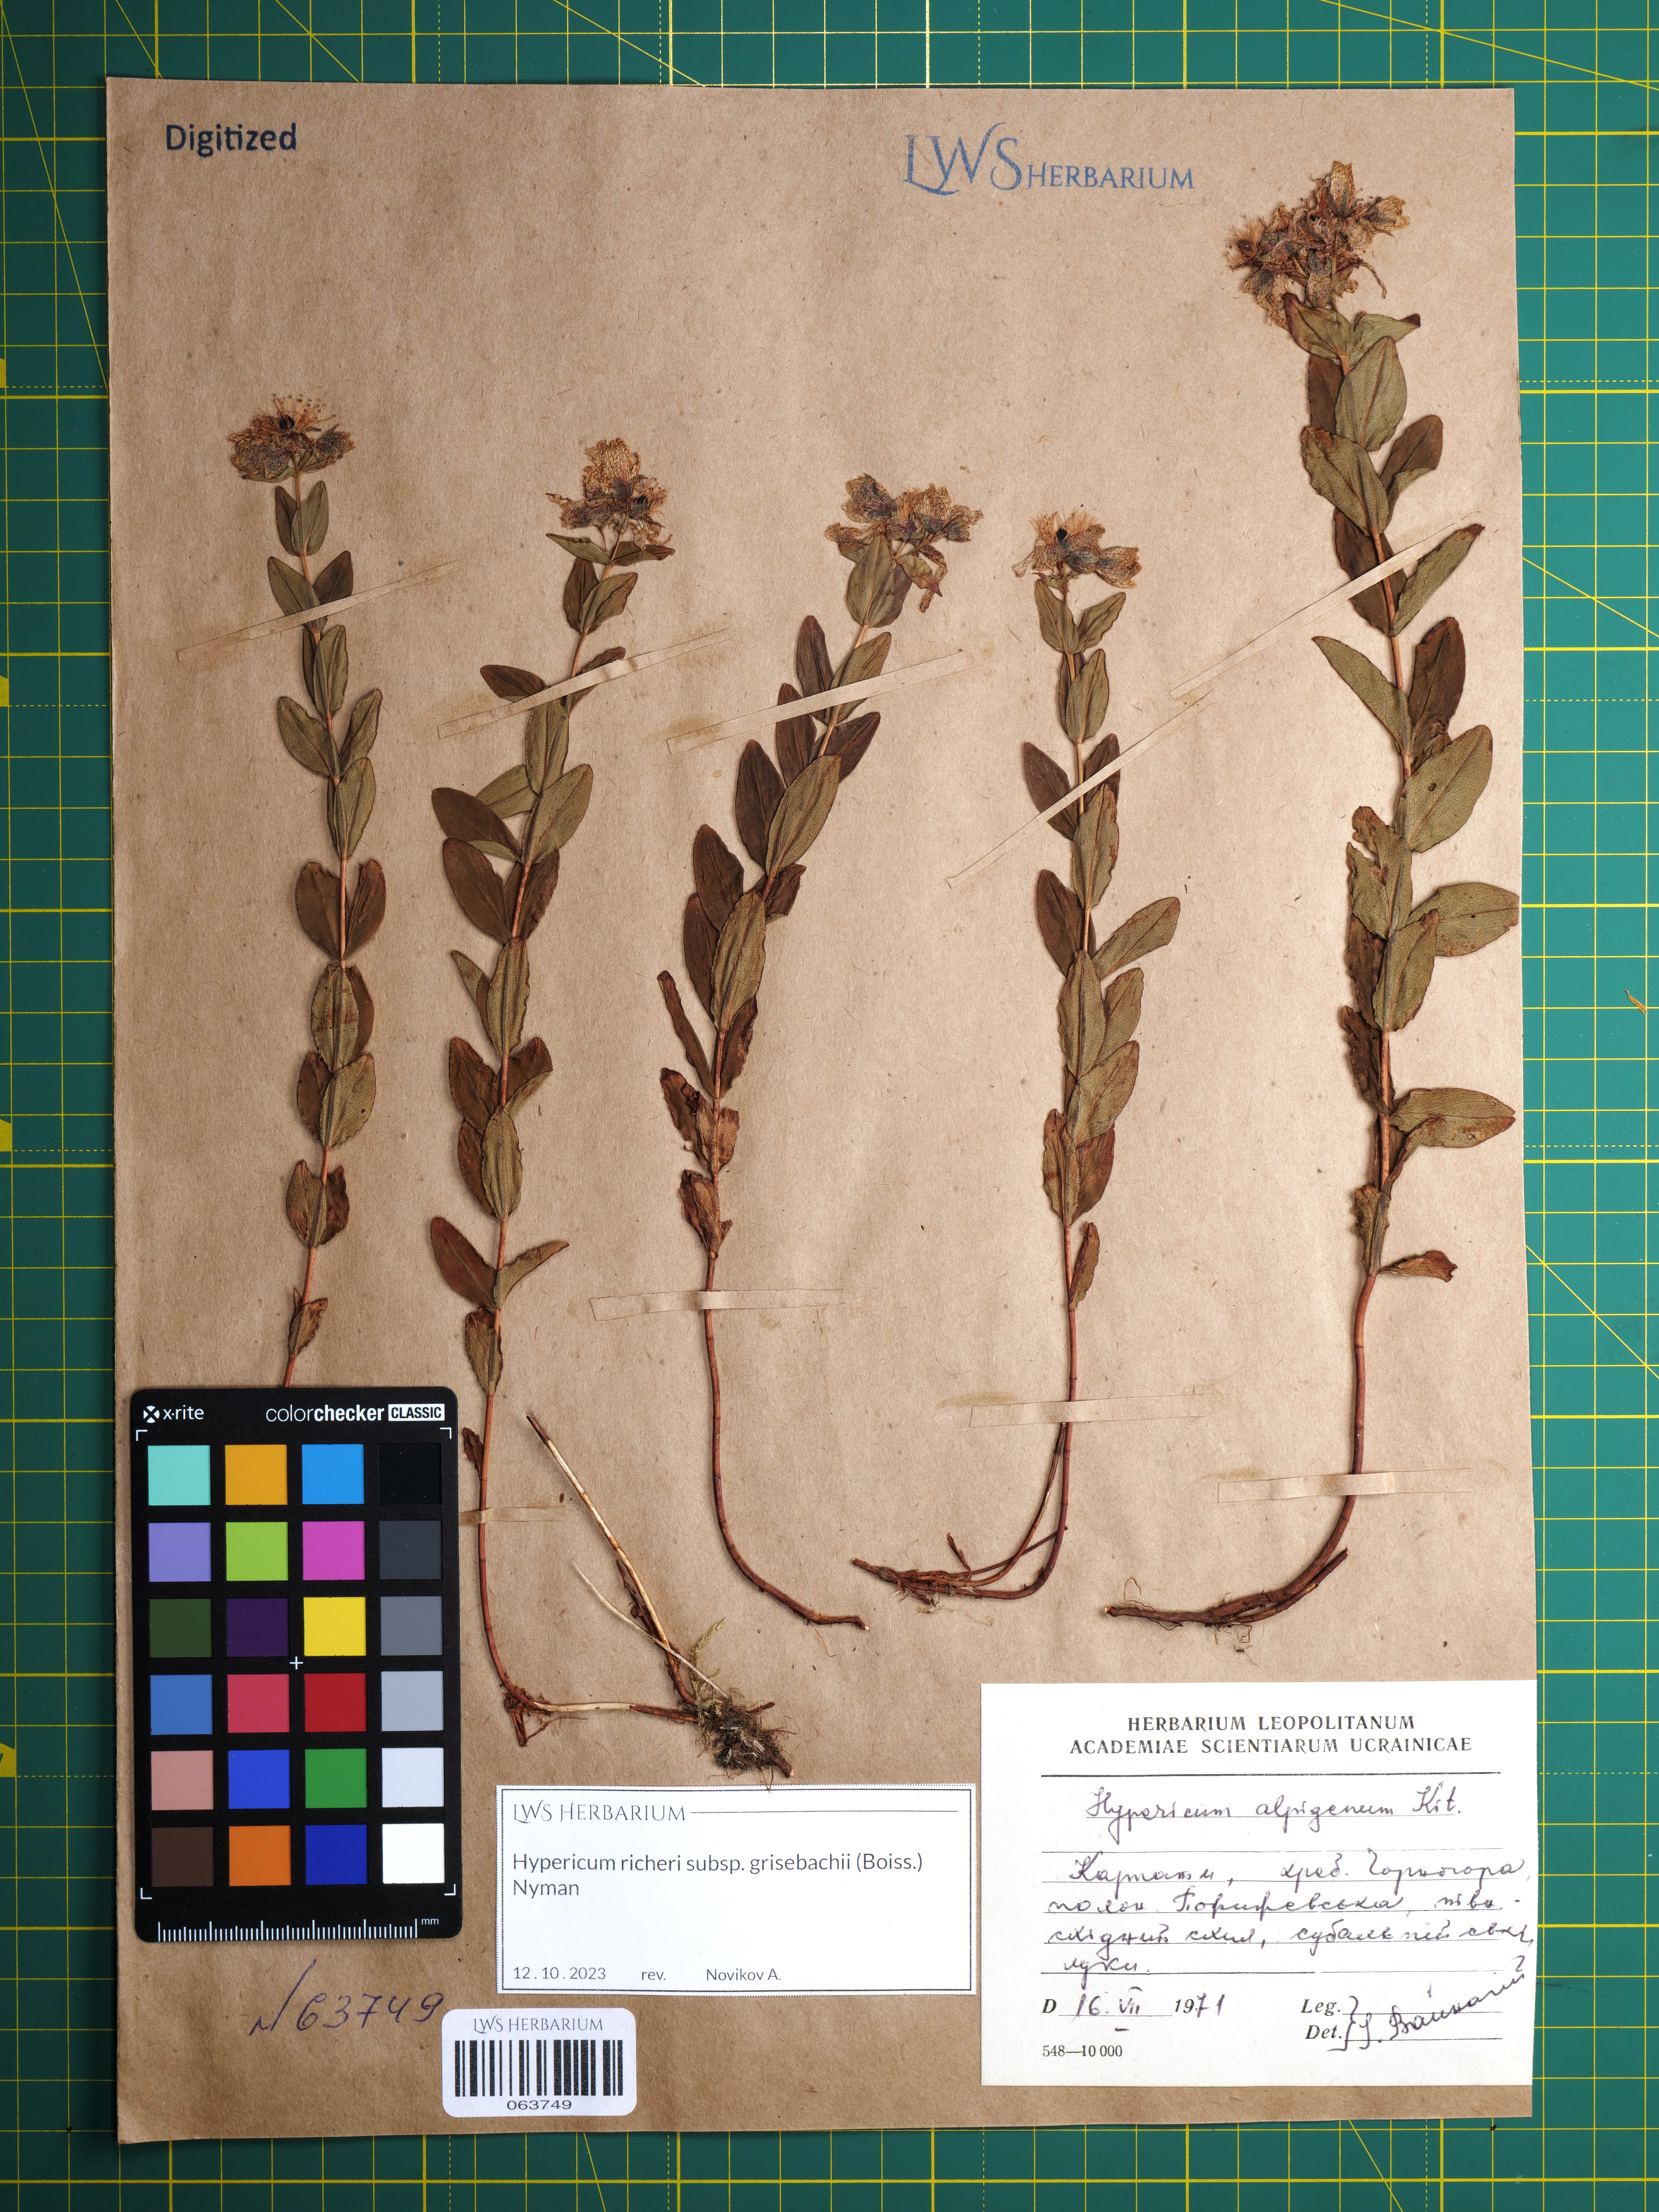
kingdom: Plantae
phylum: Tracheophyta
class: Magnoliopsida
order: Malpighiales
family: Hypericaceae
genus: Hypericum
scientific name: Hypericum richeri
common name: Alpine st john's-wort
